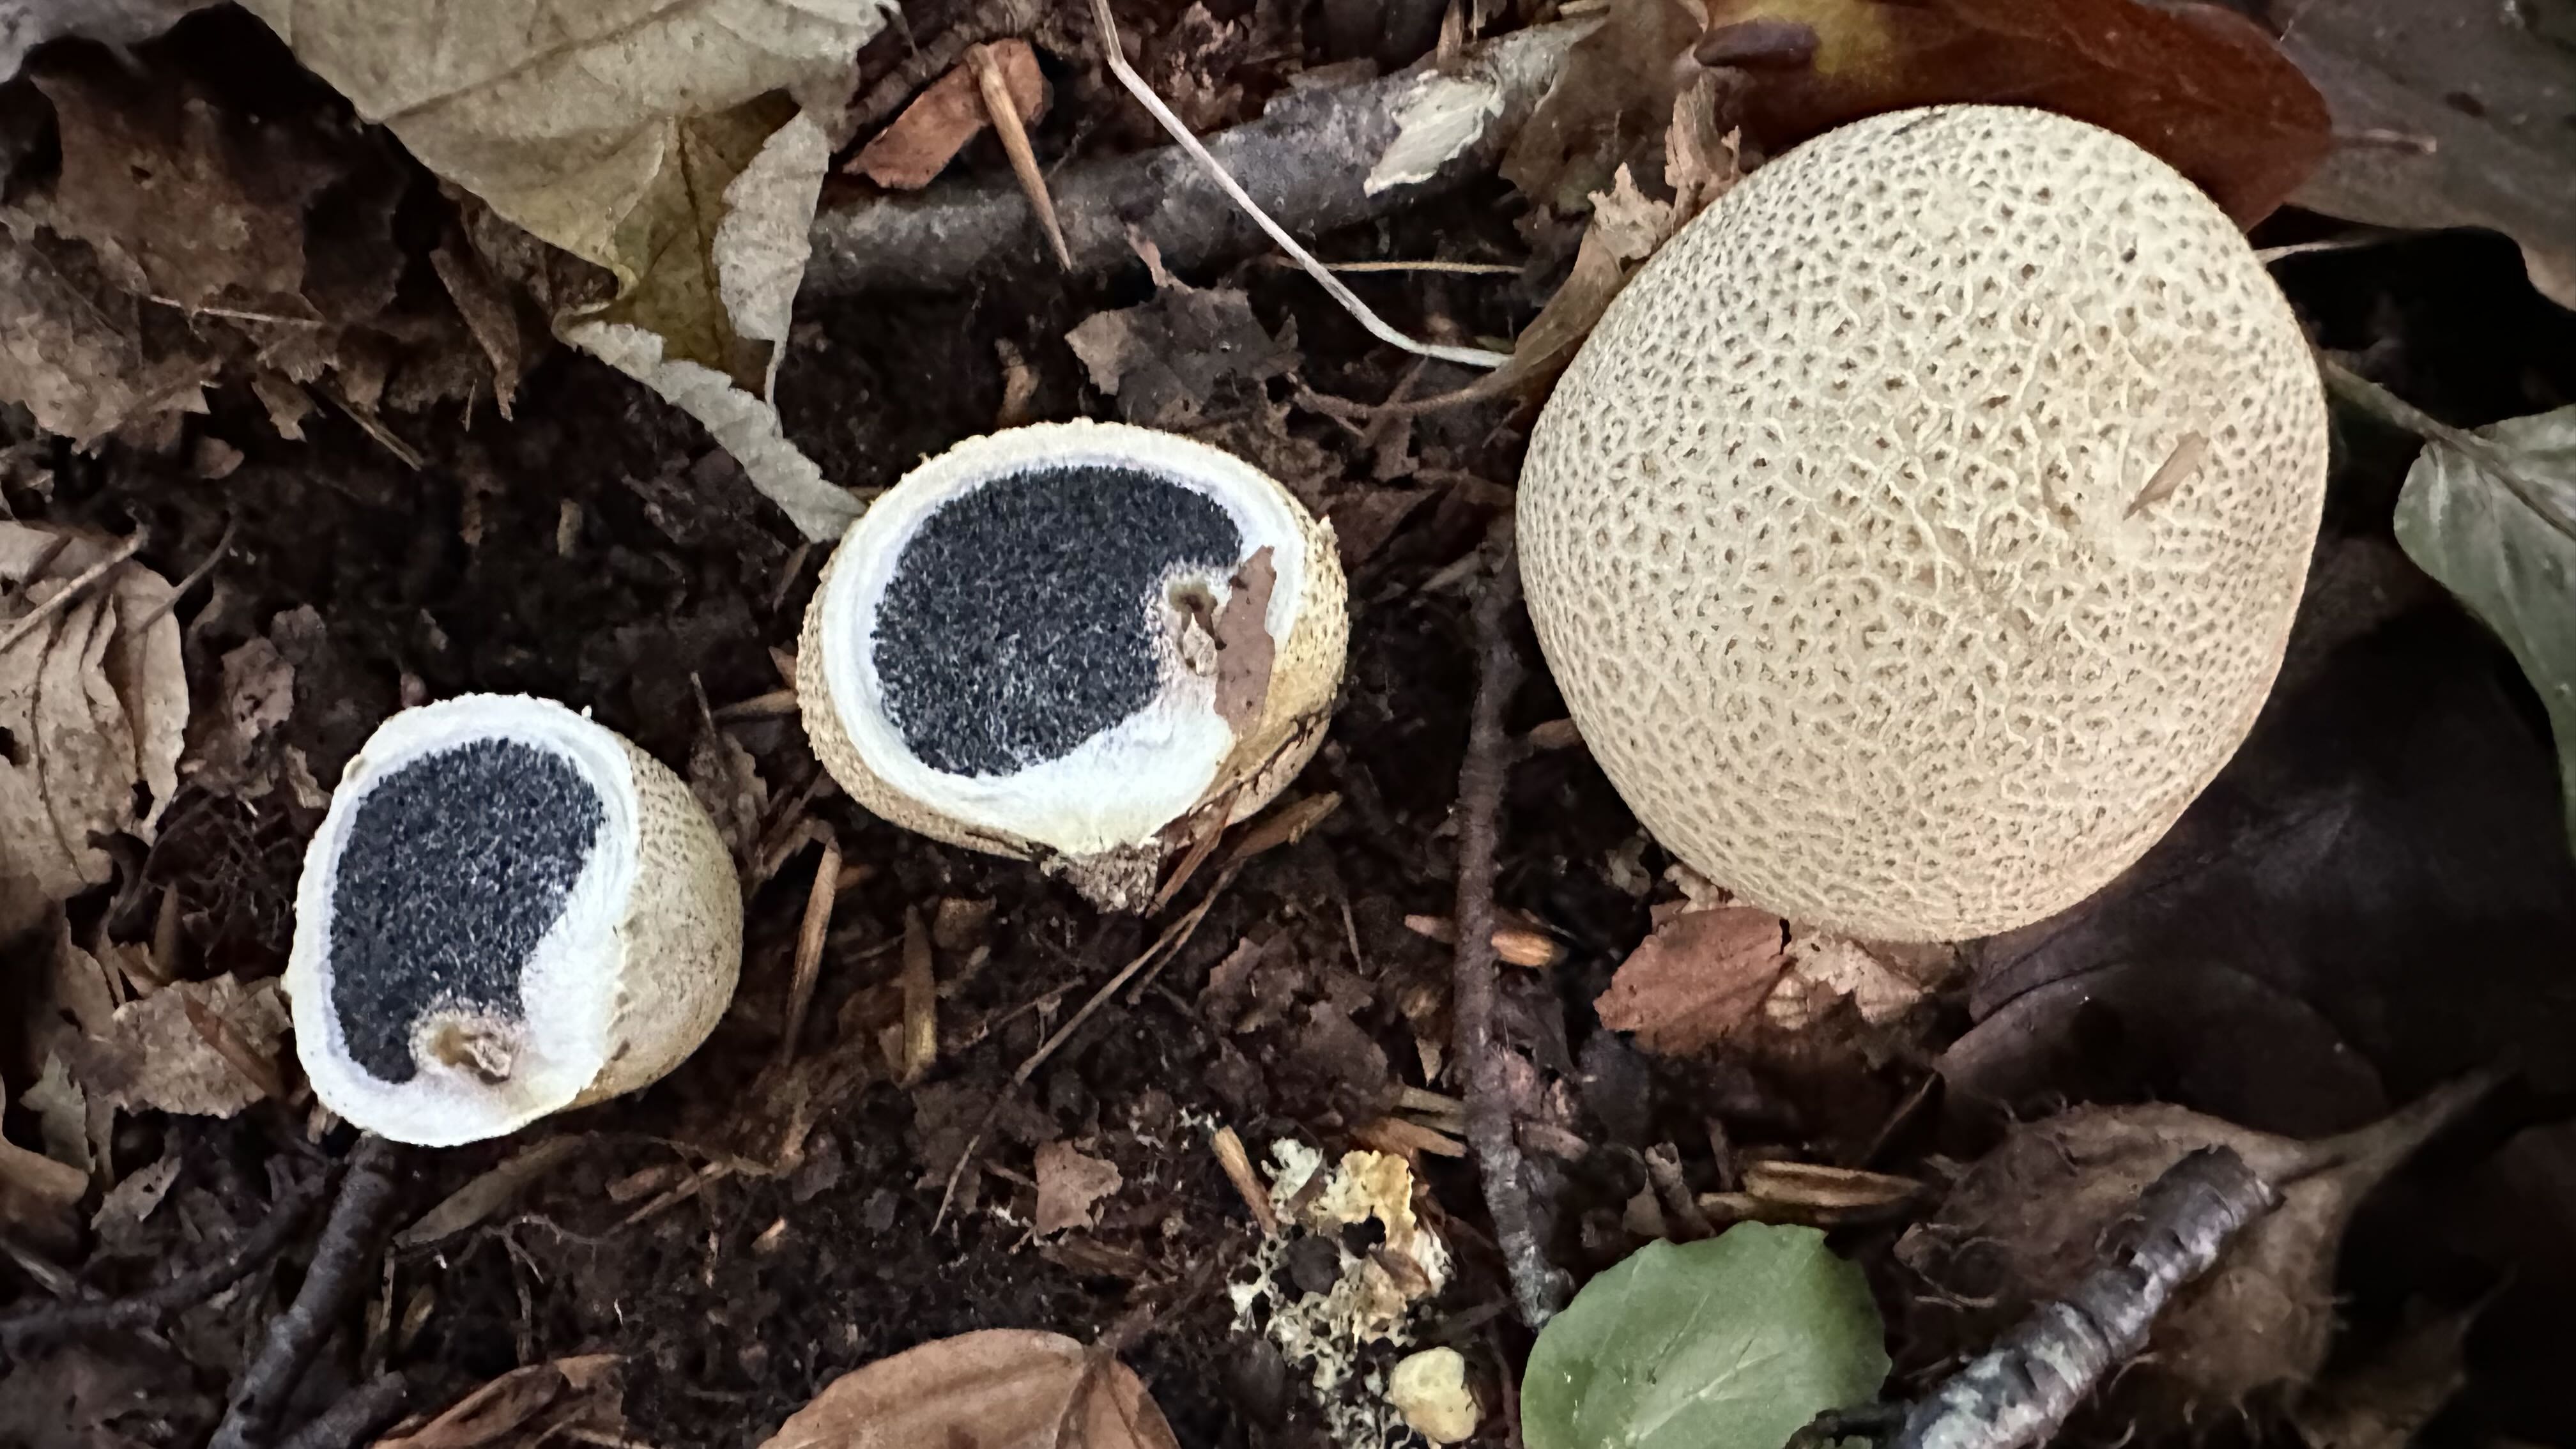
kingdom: Fungi
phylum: Basidiomycota
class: Agaricomycetes
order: Boletales
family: Sclerodermataceae
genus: Scleroderma
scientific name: Scleroderma citrinum
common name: almindelig bruskbold
